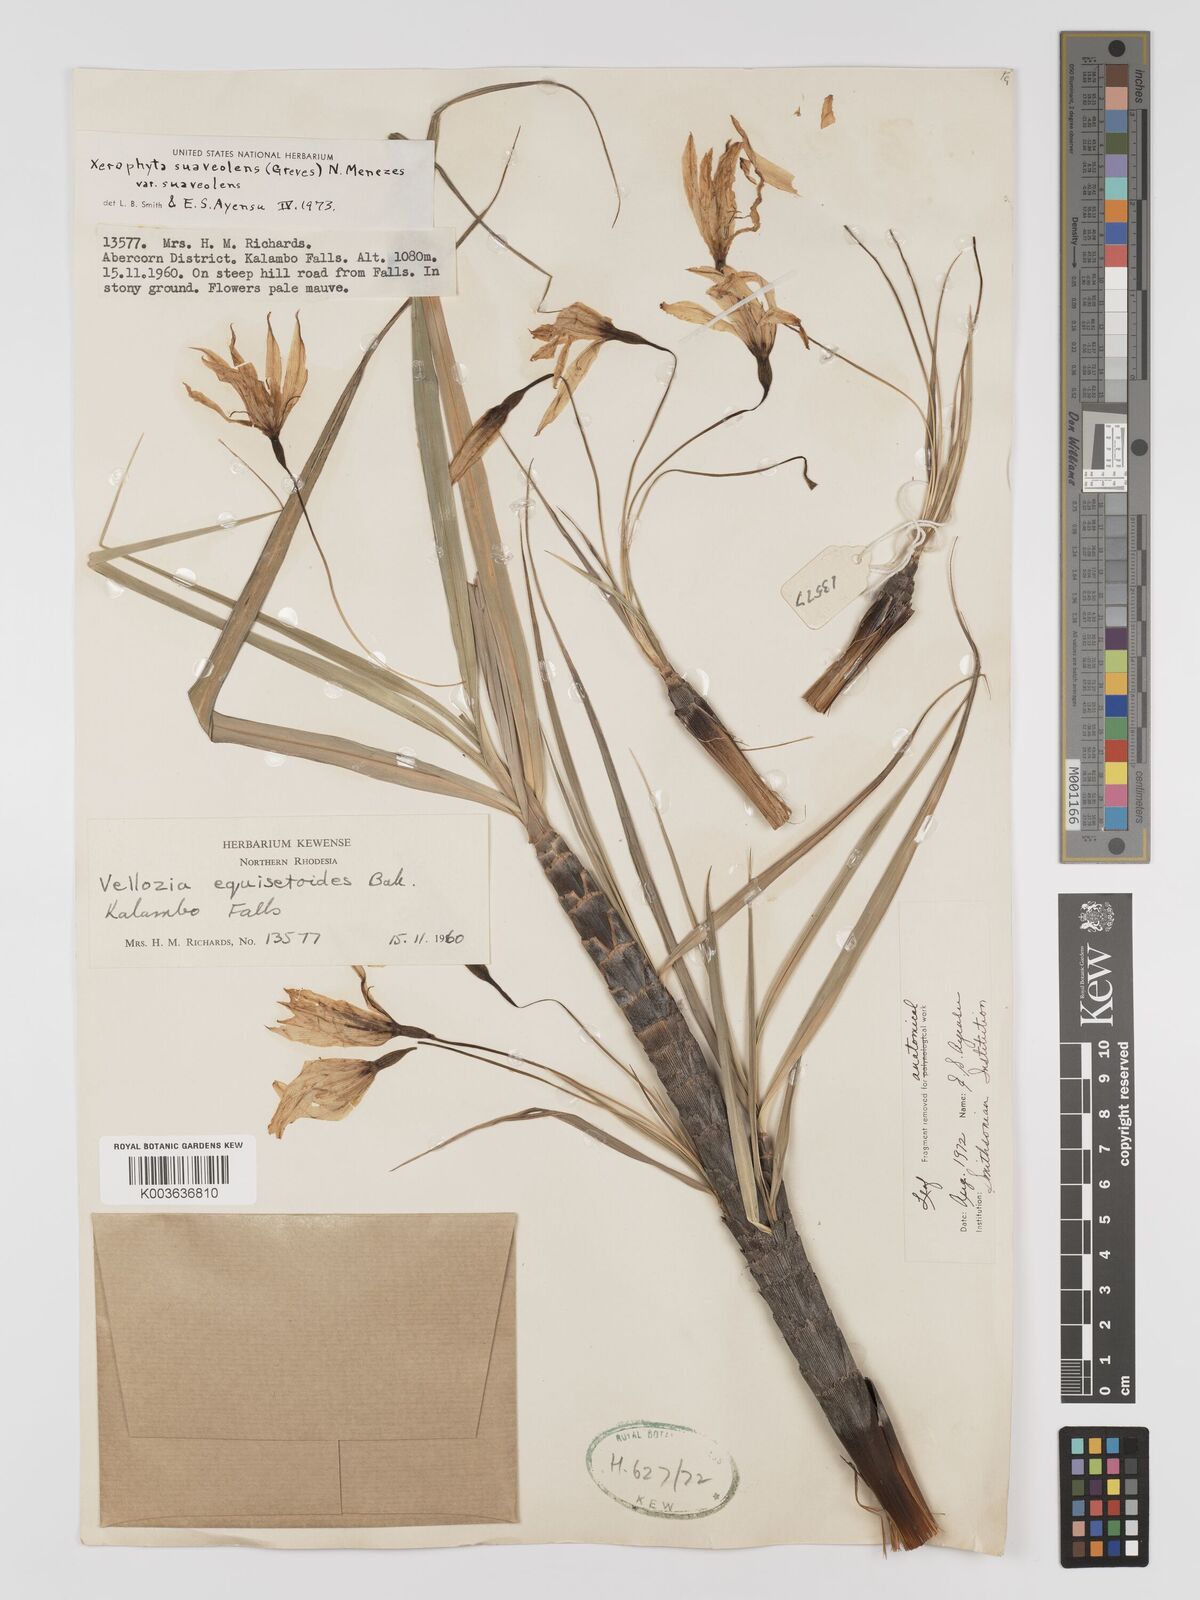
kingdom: Plantae
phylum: Tracheophyta
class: Liliopsida
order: Pandanales
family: Velloziaceae
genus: Xerophyta
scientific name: Xerophyta suaveolens
